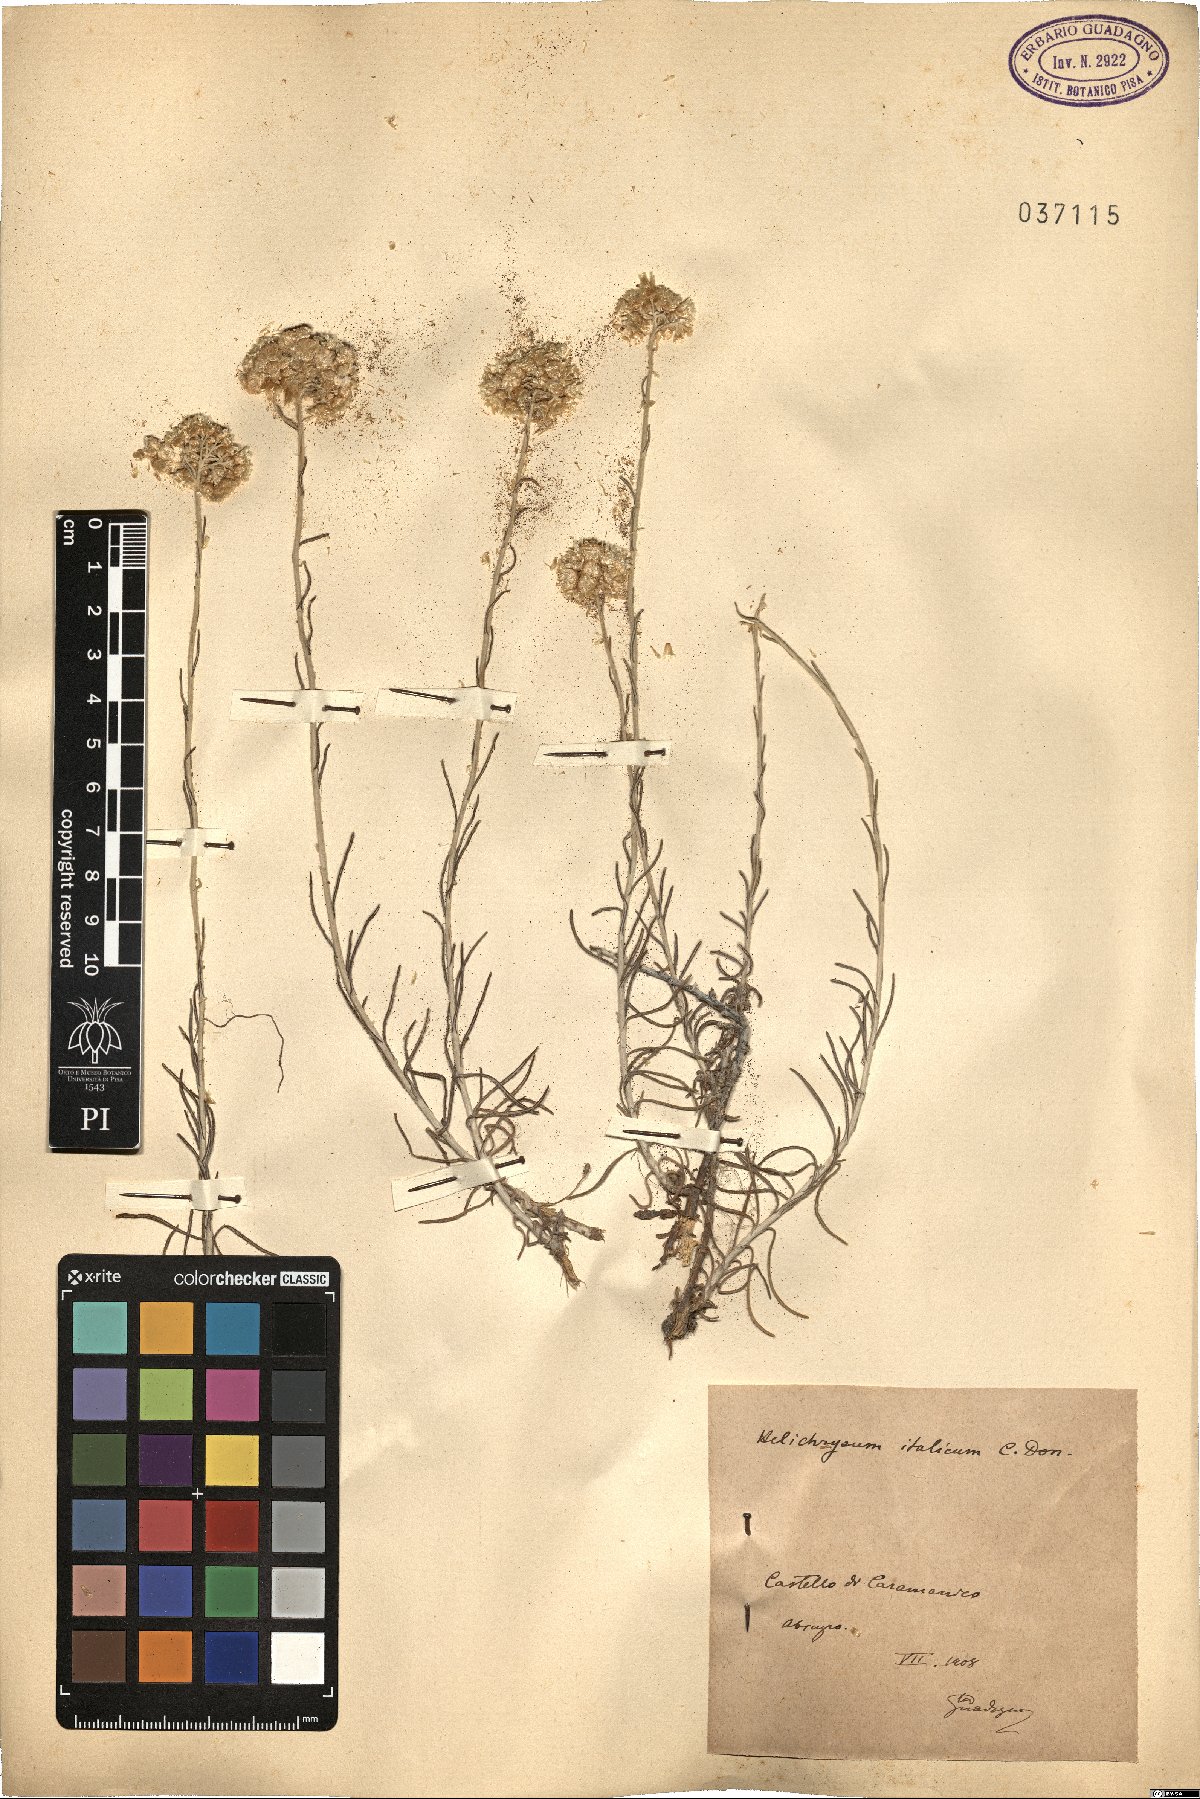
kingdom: Plantae
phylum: Tracheophyta
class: Magnoliopsida
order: Asterales
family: Asteraceae
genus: Helichrysum
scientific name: Helichrysum italicum
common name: Curryplant
